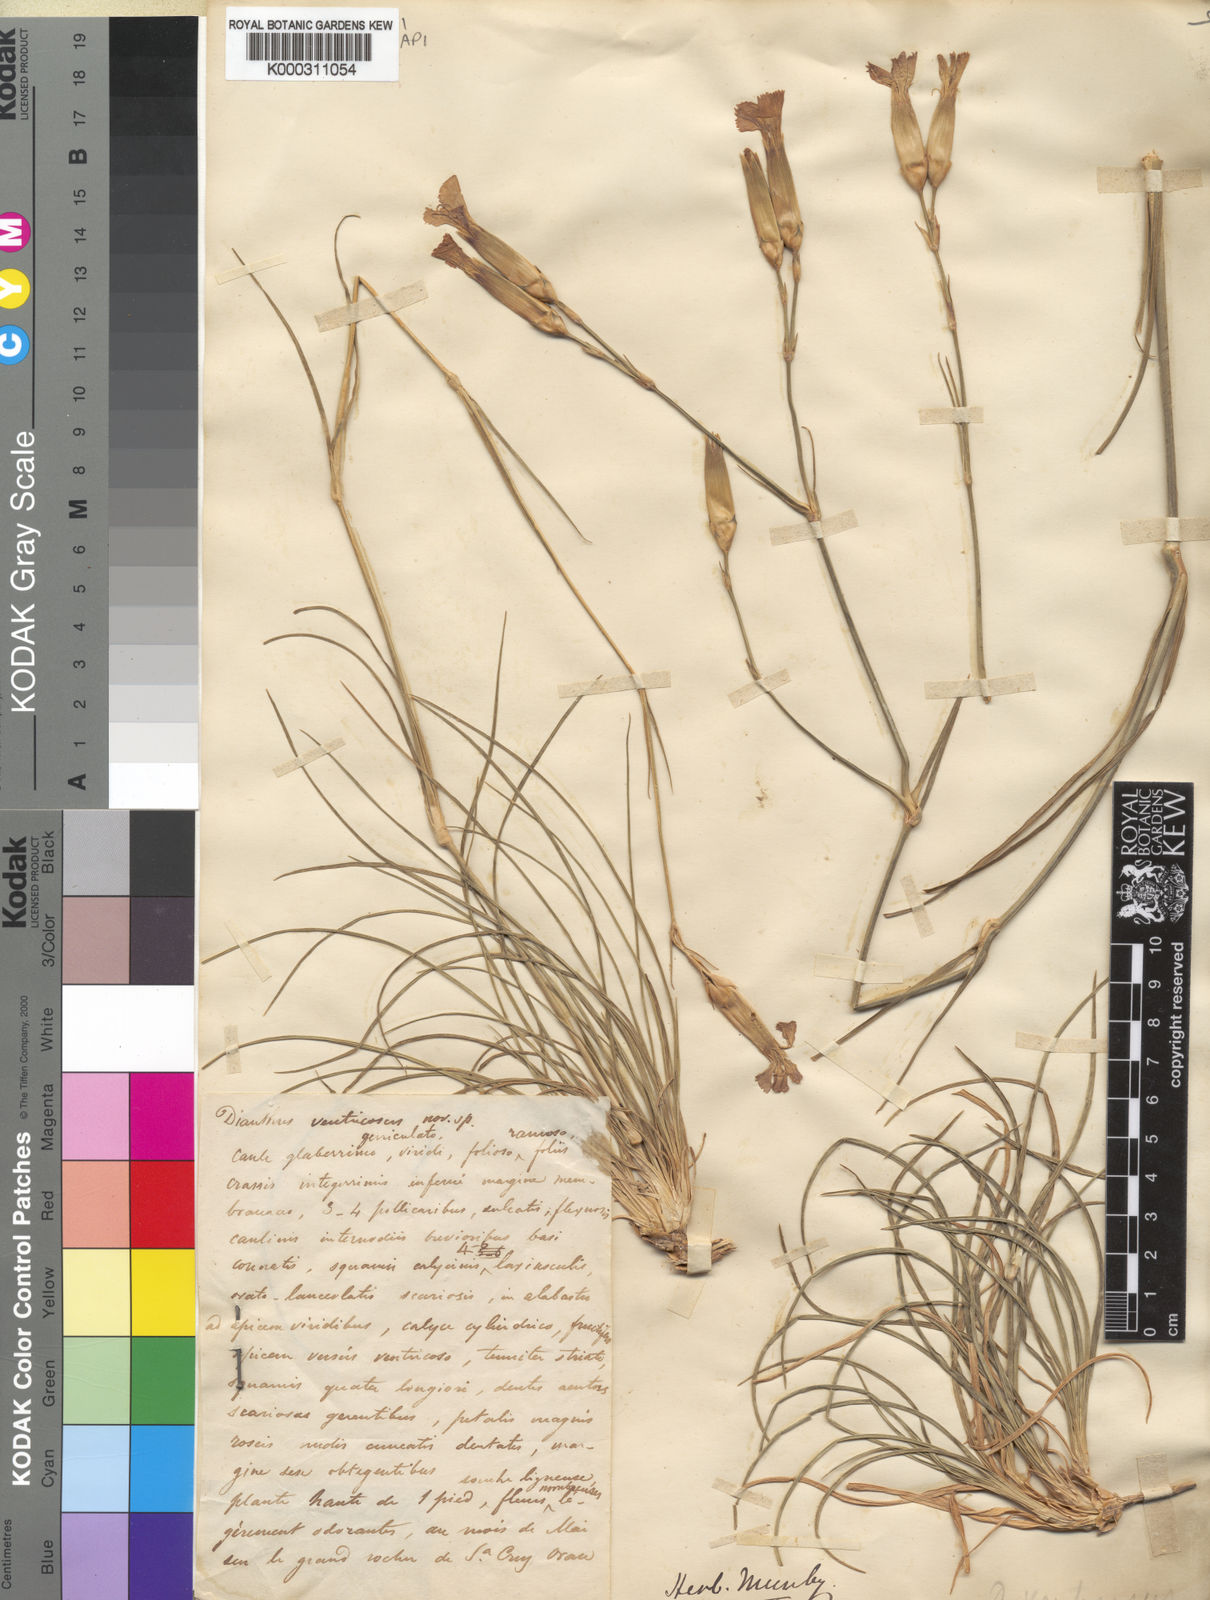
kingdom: Plantae
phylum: Tracheophyta
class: Magnoliopsida
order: Caryophyllales
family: Caryophyllaceae
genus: Dianthus
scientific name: Dianthus sylvestris
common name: Wood pink
